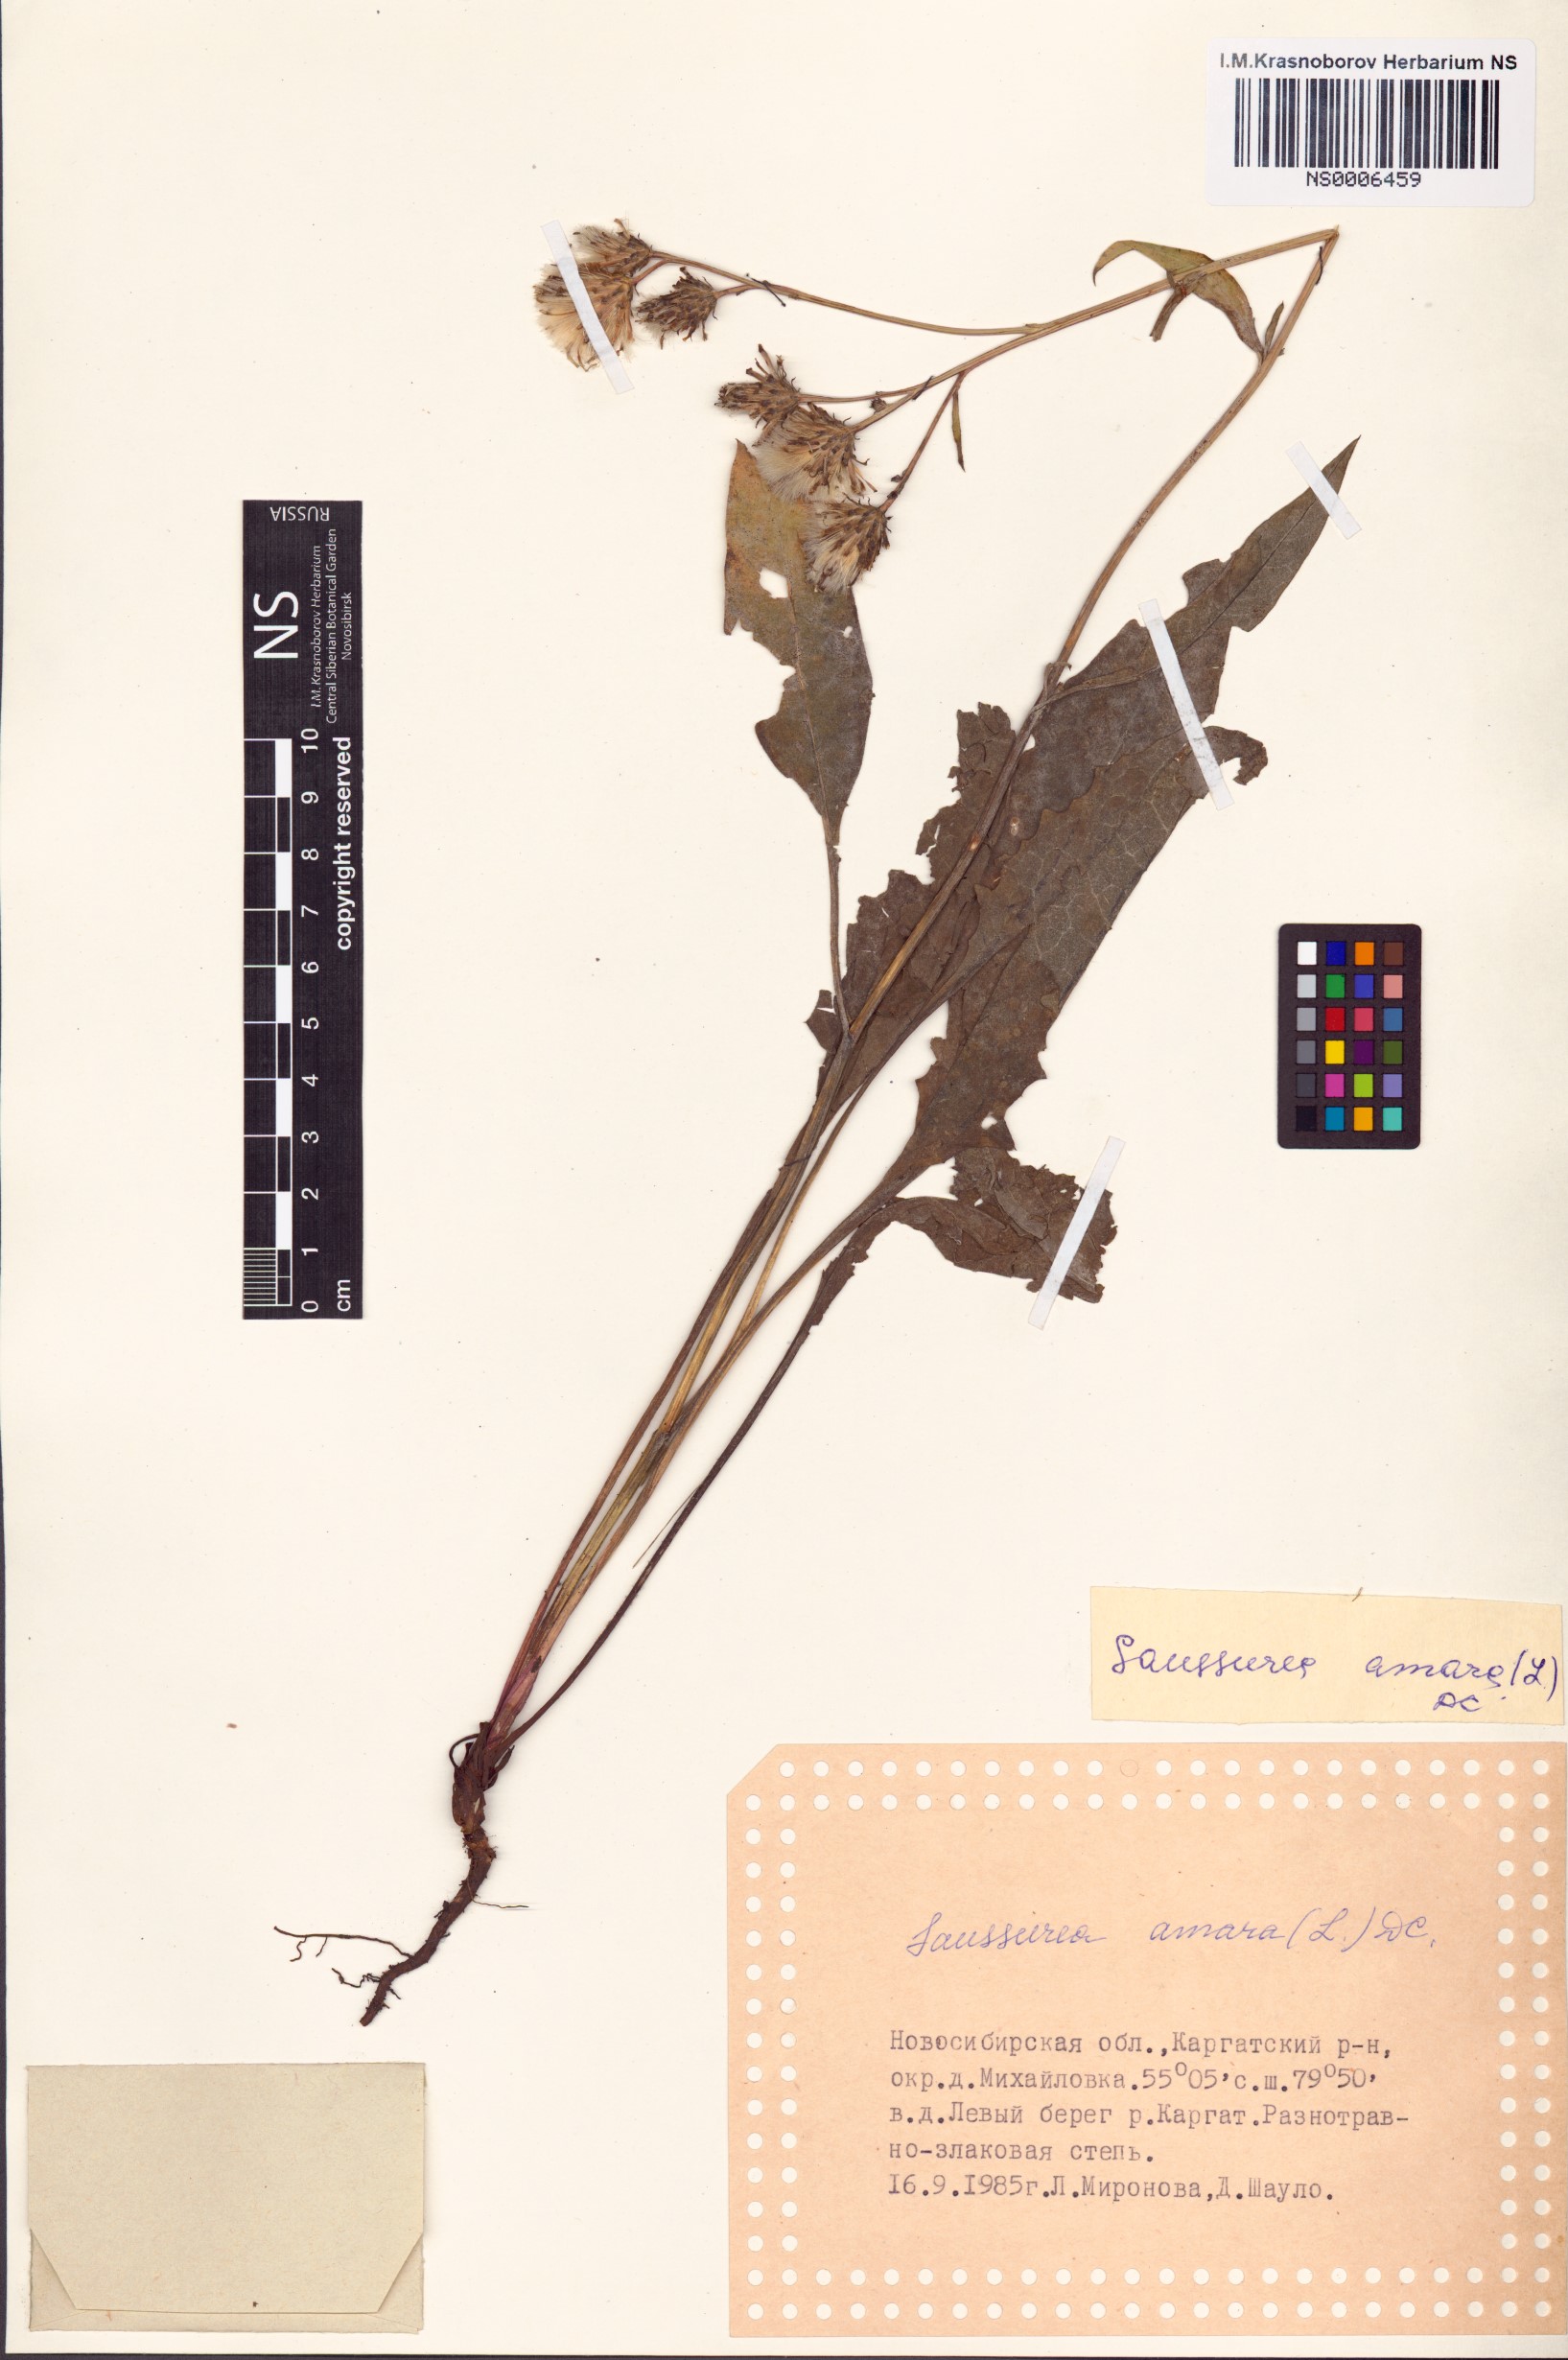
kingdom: Plantae
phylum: Tracheophyta
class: Magnoliopsida
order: Asterales
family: Asteraceae
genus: Saussurea
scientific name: Saussurea amara
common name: Alberta sawwort
